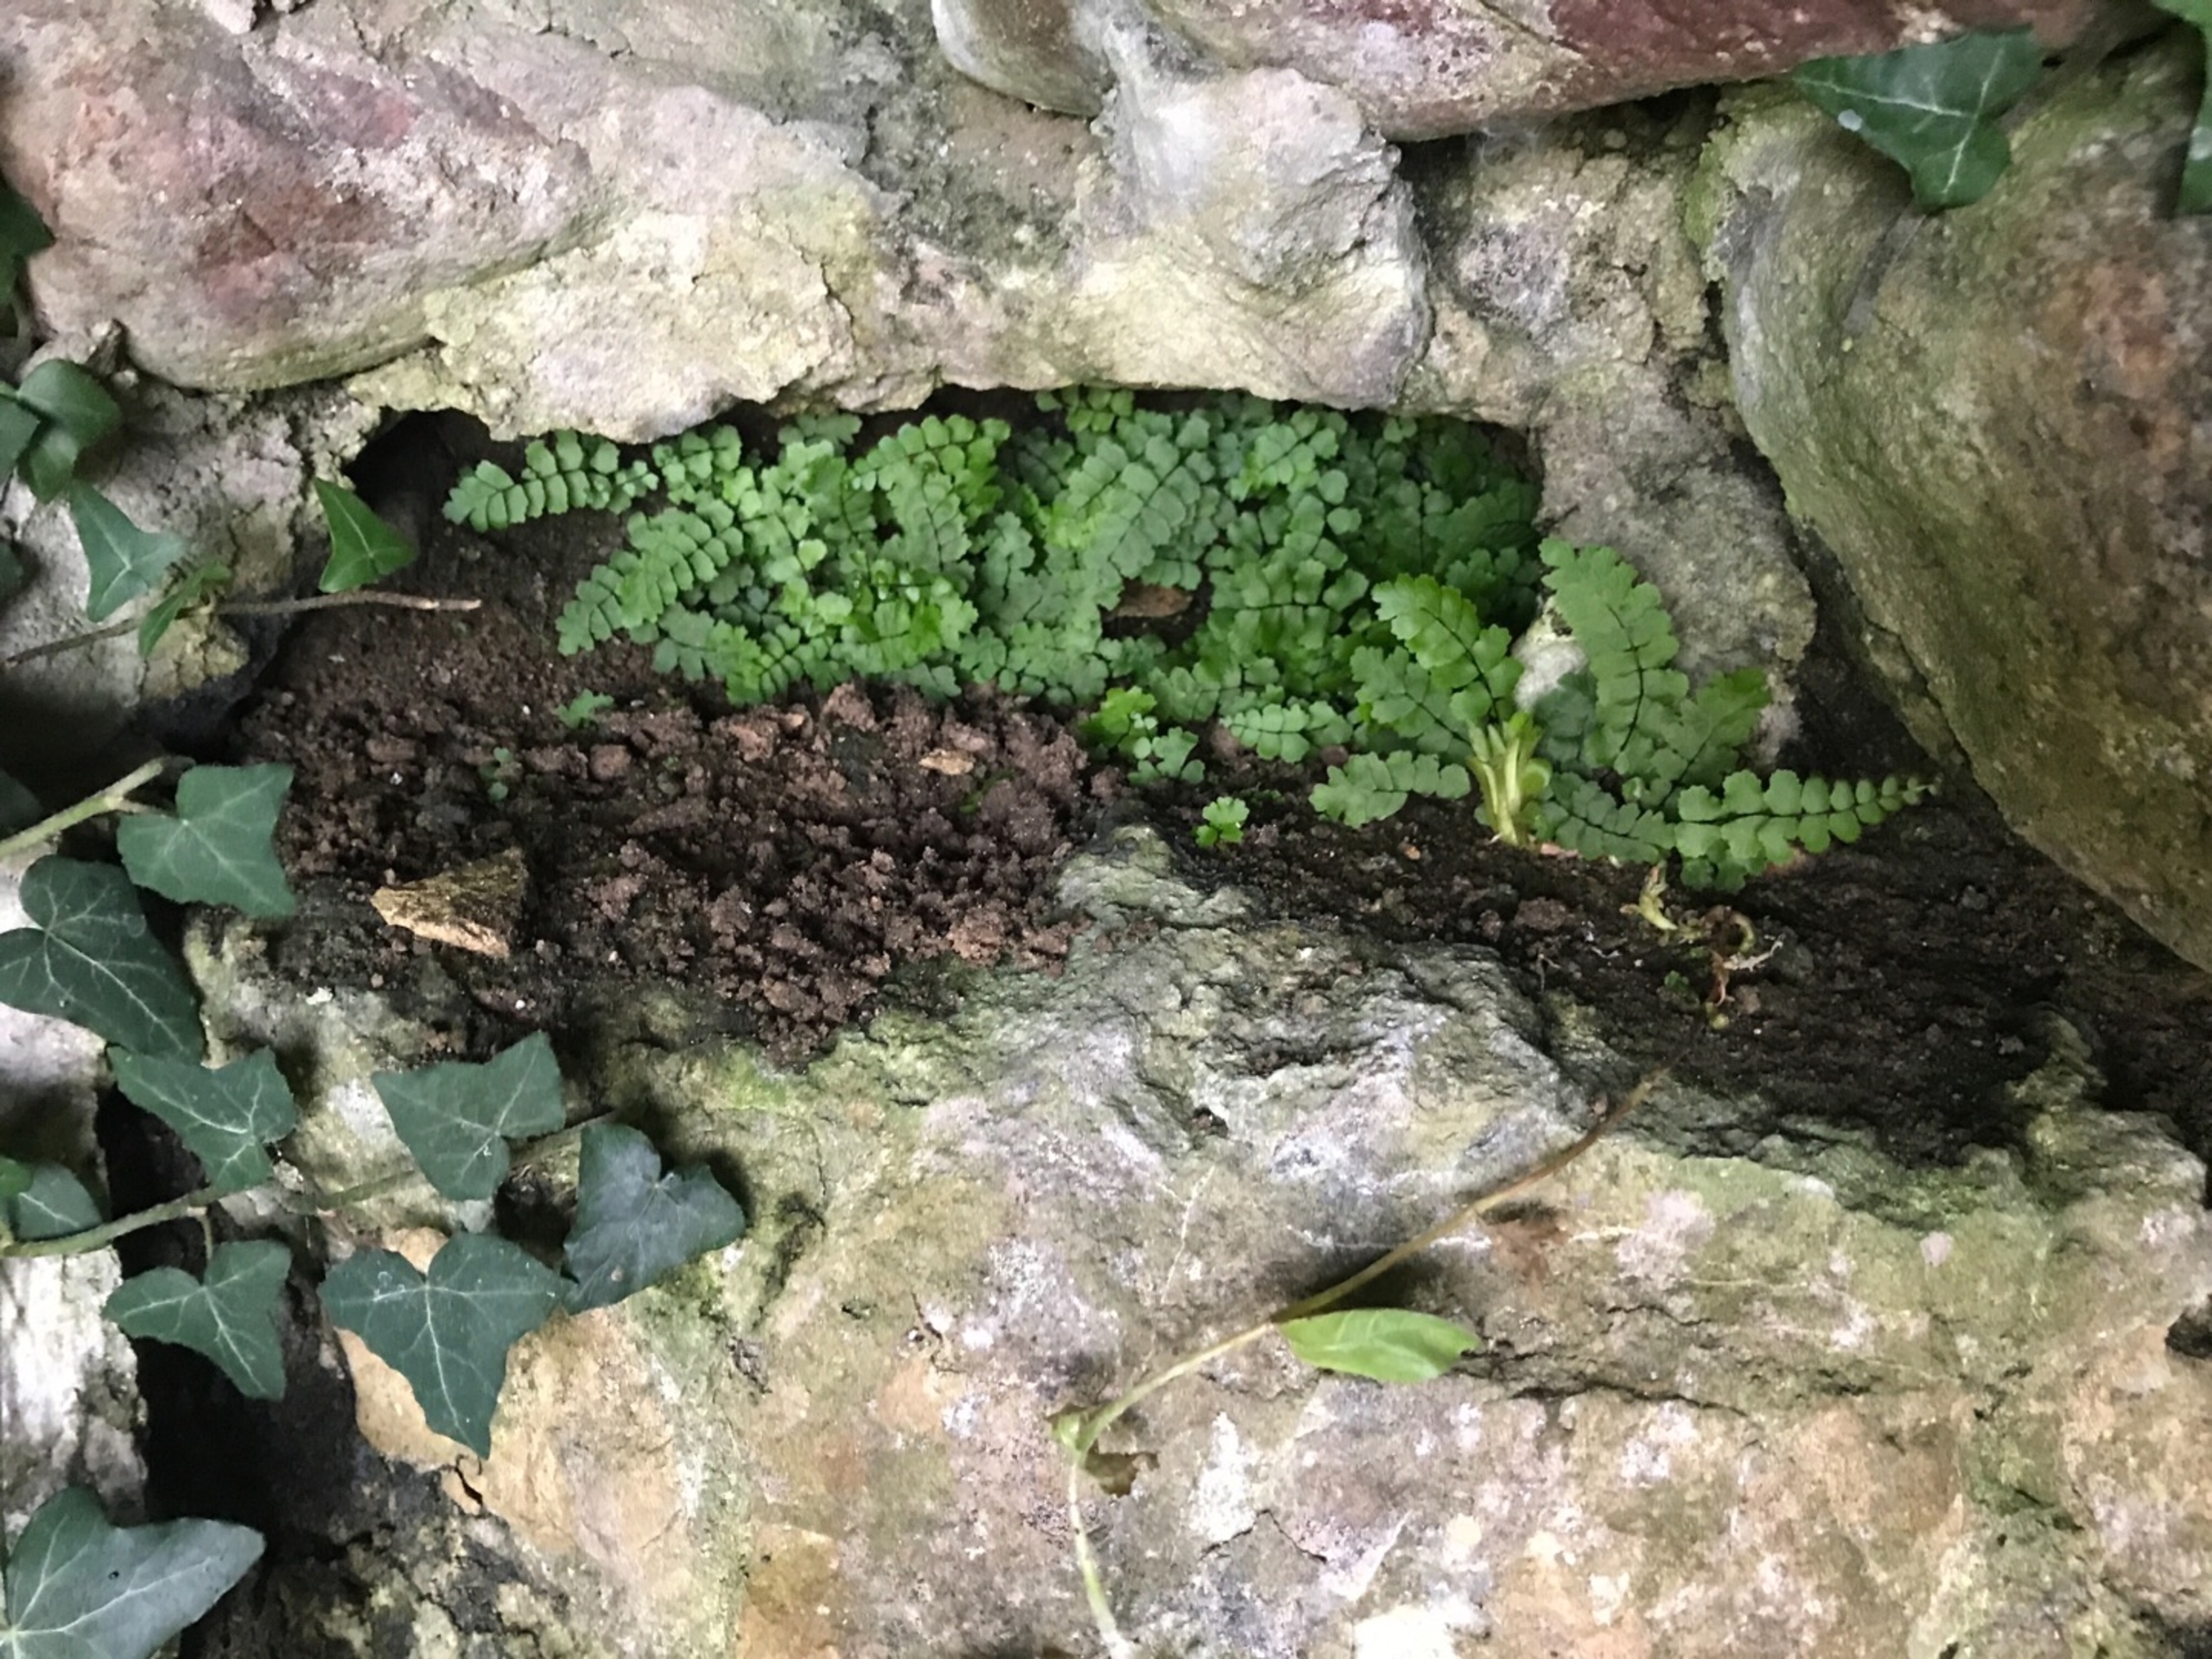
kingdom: Plantae
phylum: Tracheophyta
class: Polypodiopsida
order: Polypodiales
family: Aspleniaceae
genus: Asplenium
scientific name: Asplenium trichomanes
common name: Rundfinnet radeløv
